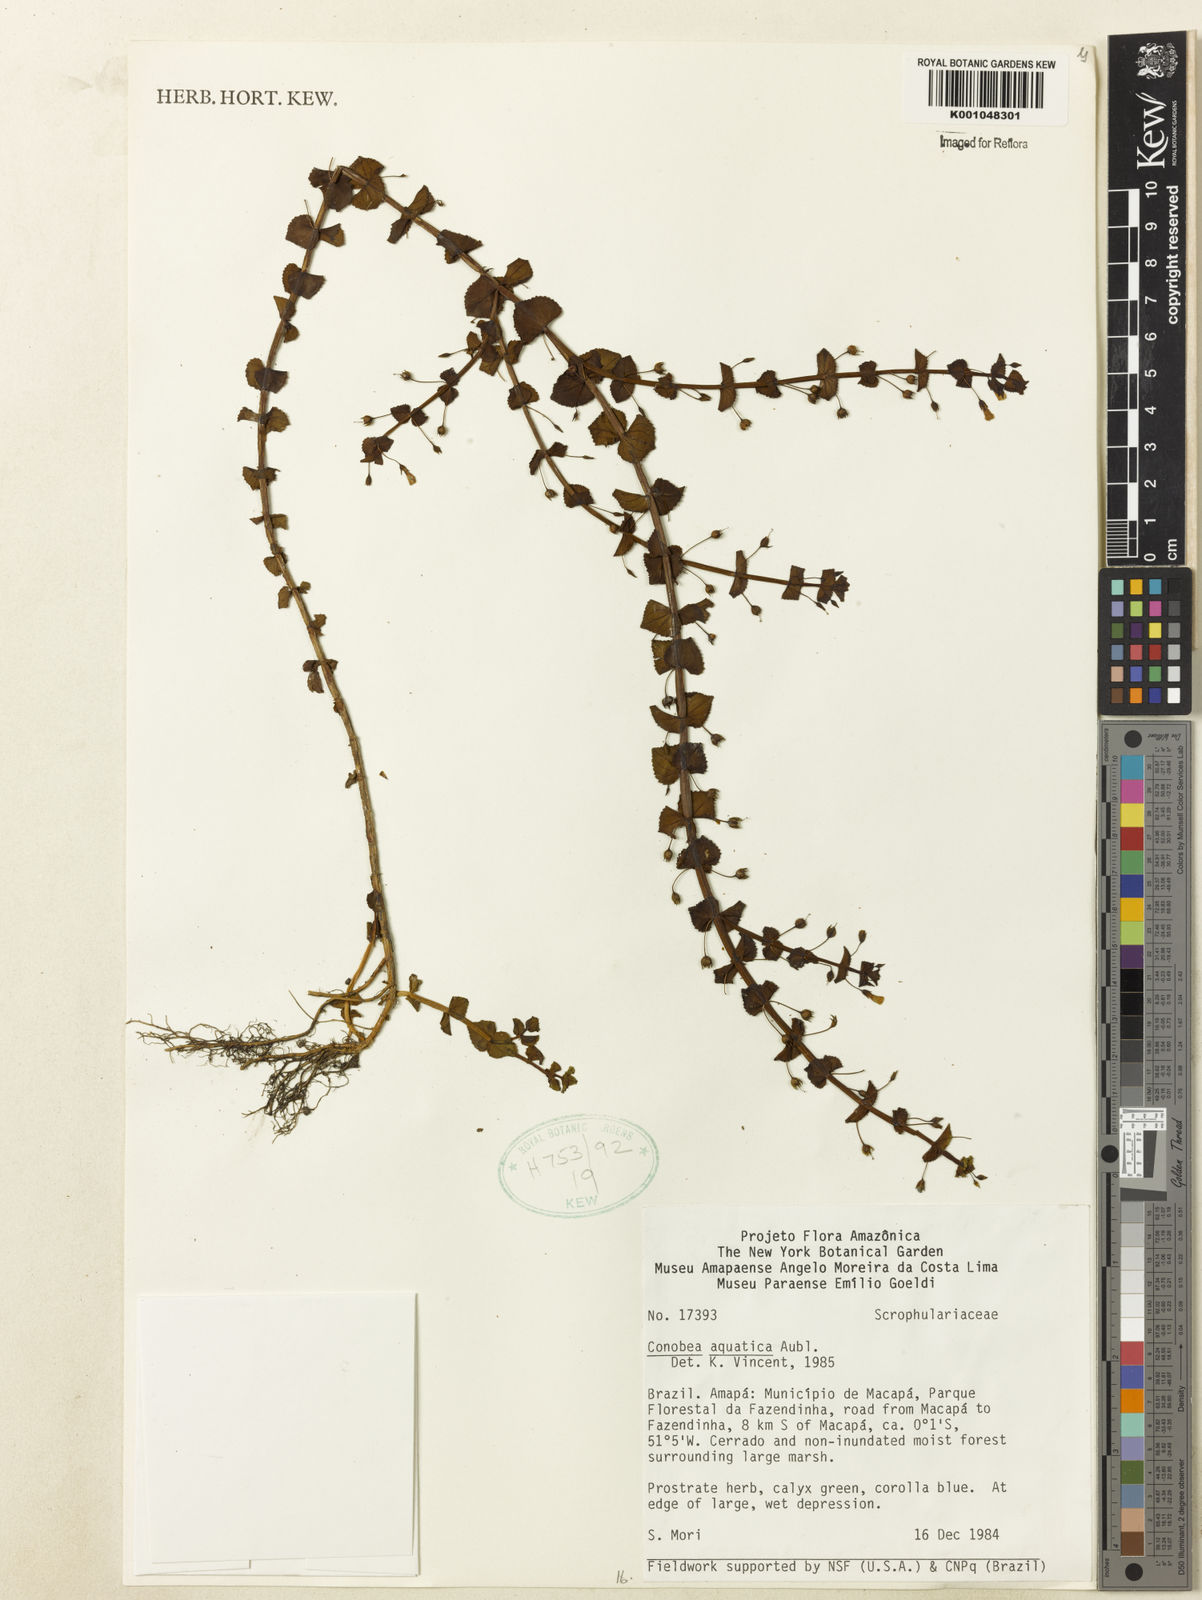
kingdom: Plantae
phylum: Tracheophyta
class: Magnoliopsida
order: Lamiales
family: Plantaginaceae
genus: Conobea
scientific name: Conobea aquatica
